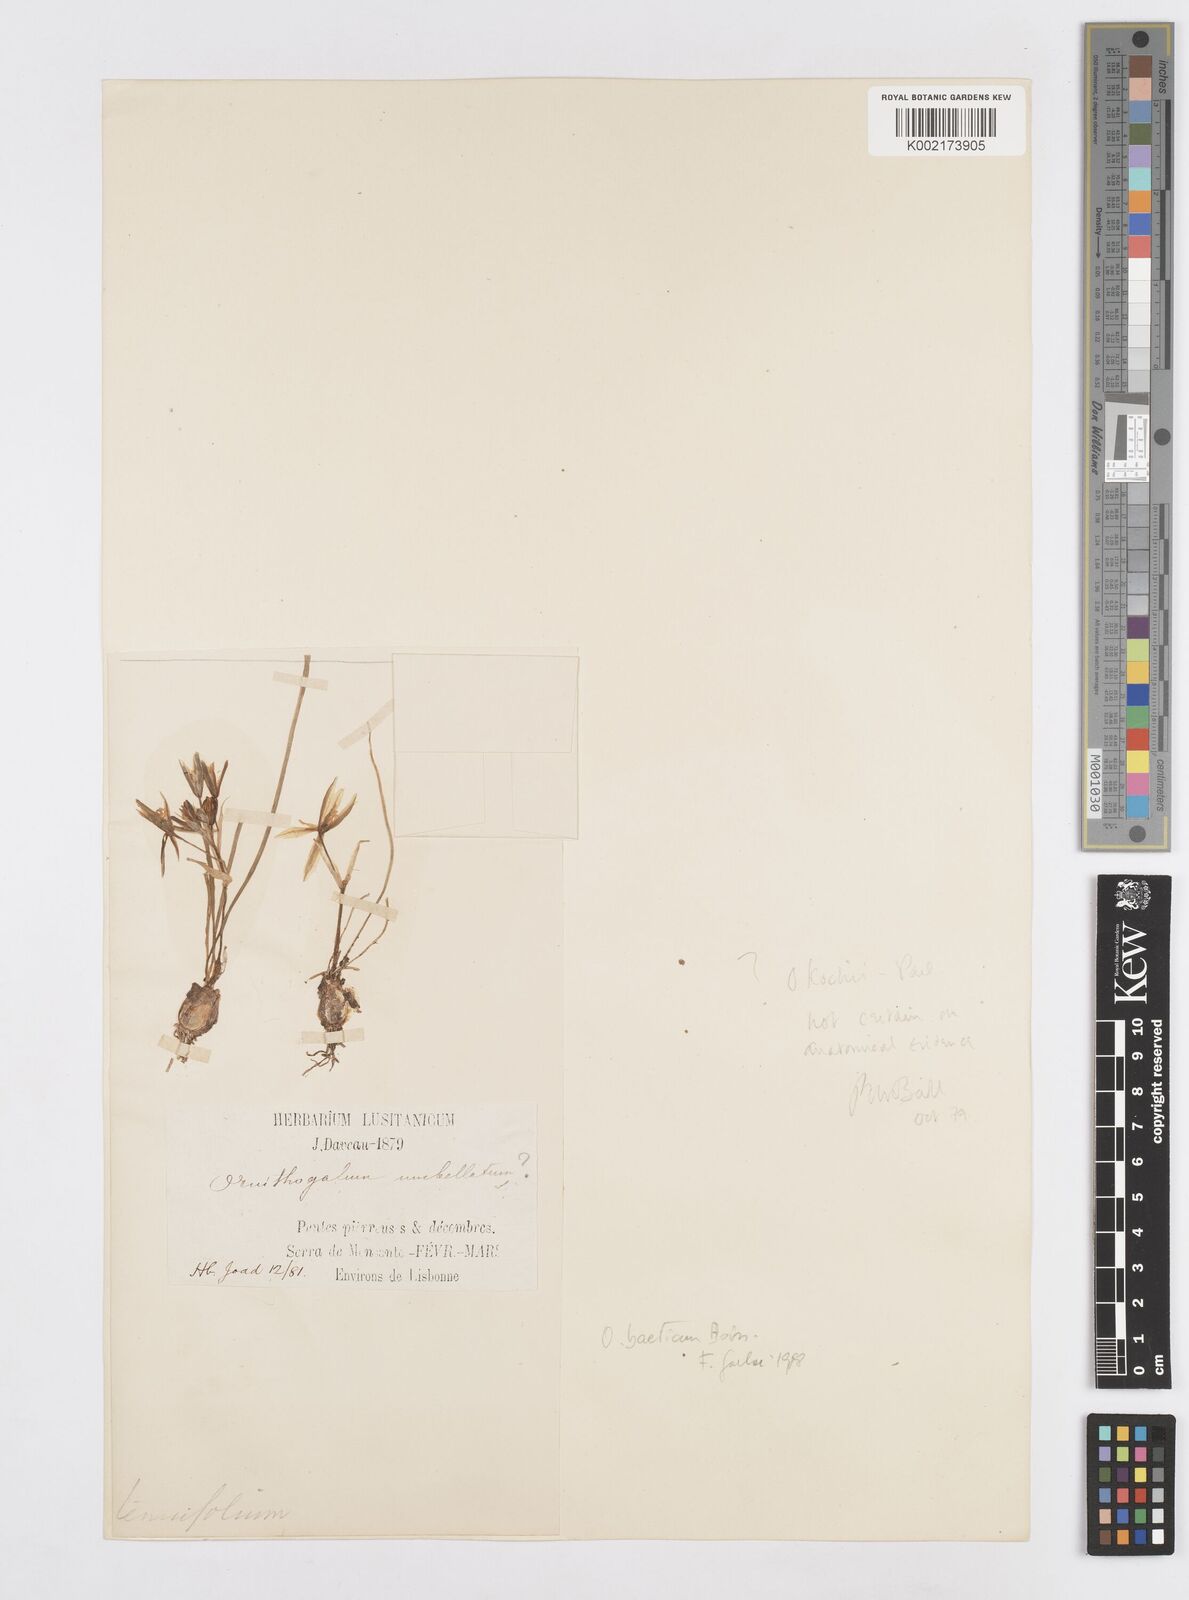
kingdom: Plantae
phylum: Tracheophyta
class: Liliopsida
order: Asparagales
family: Asparagaceae
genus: Ornithogalum
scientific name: Ornithogalum orthophyllum
